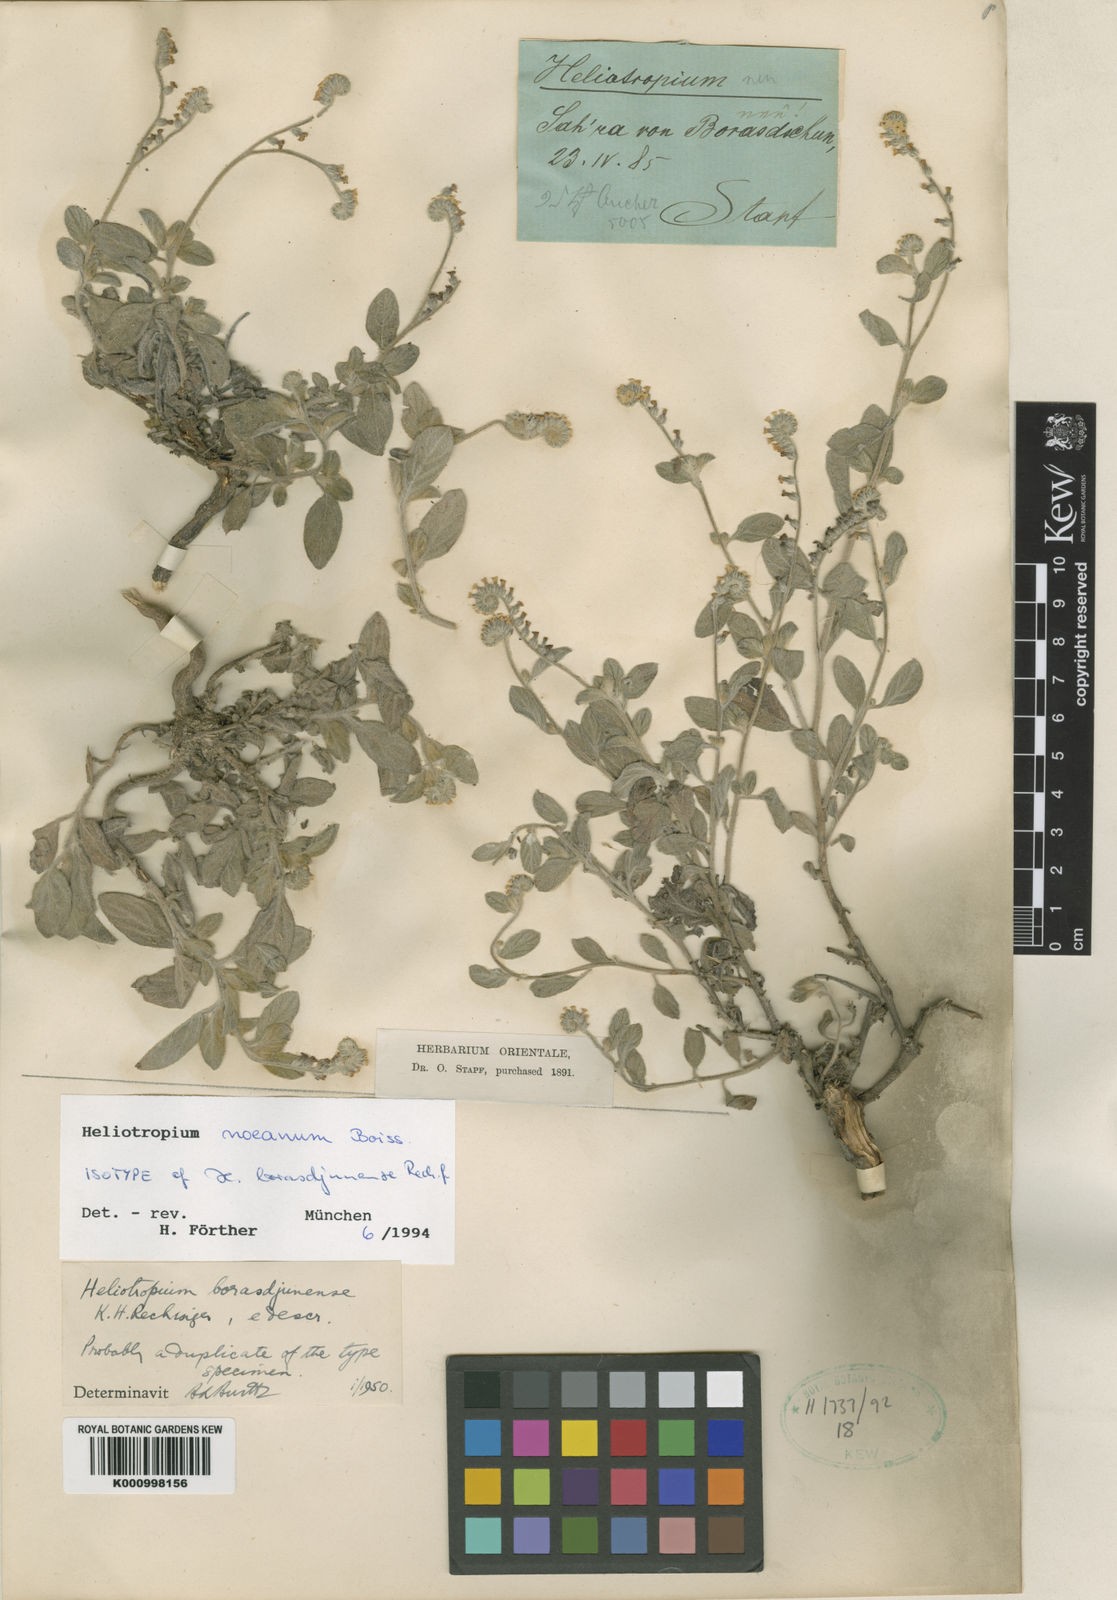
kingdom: Plantae
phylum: Tracheophyta
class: Magnoliopsida
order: Boraginales
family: Heliotropiaceae
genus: Heliotropium
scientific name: Heliotropium noeanum
